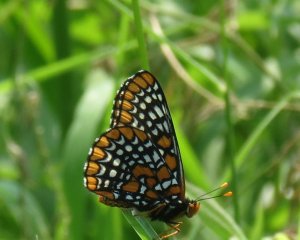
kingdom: Animalia
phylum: Arthropoda
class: Insecta
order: Lepidoptera
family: Nymphalidae
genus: Euphydryas
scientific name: Euphydryas phaeton
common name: Baltimore Checkerspot
